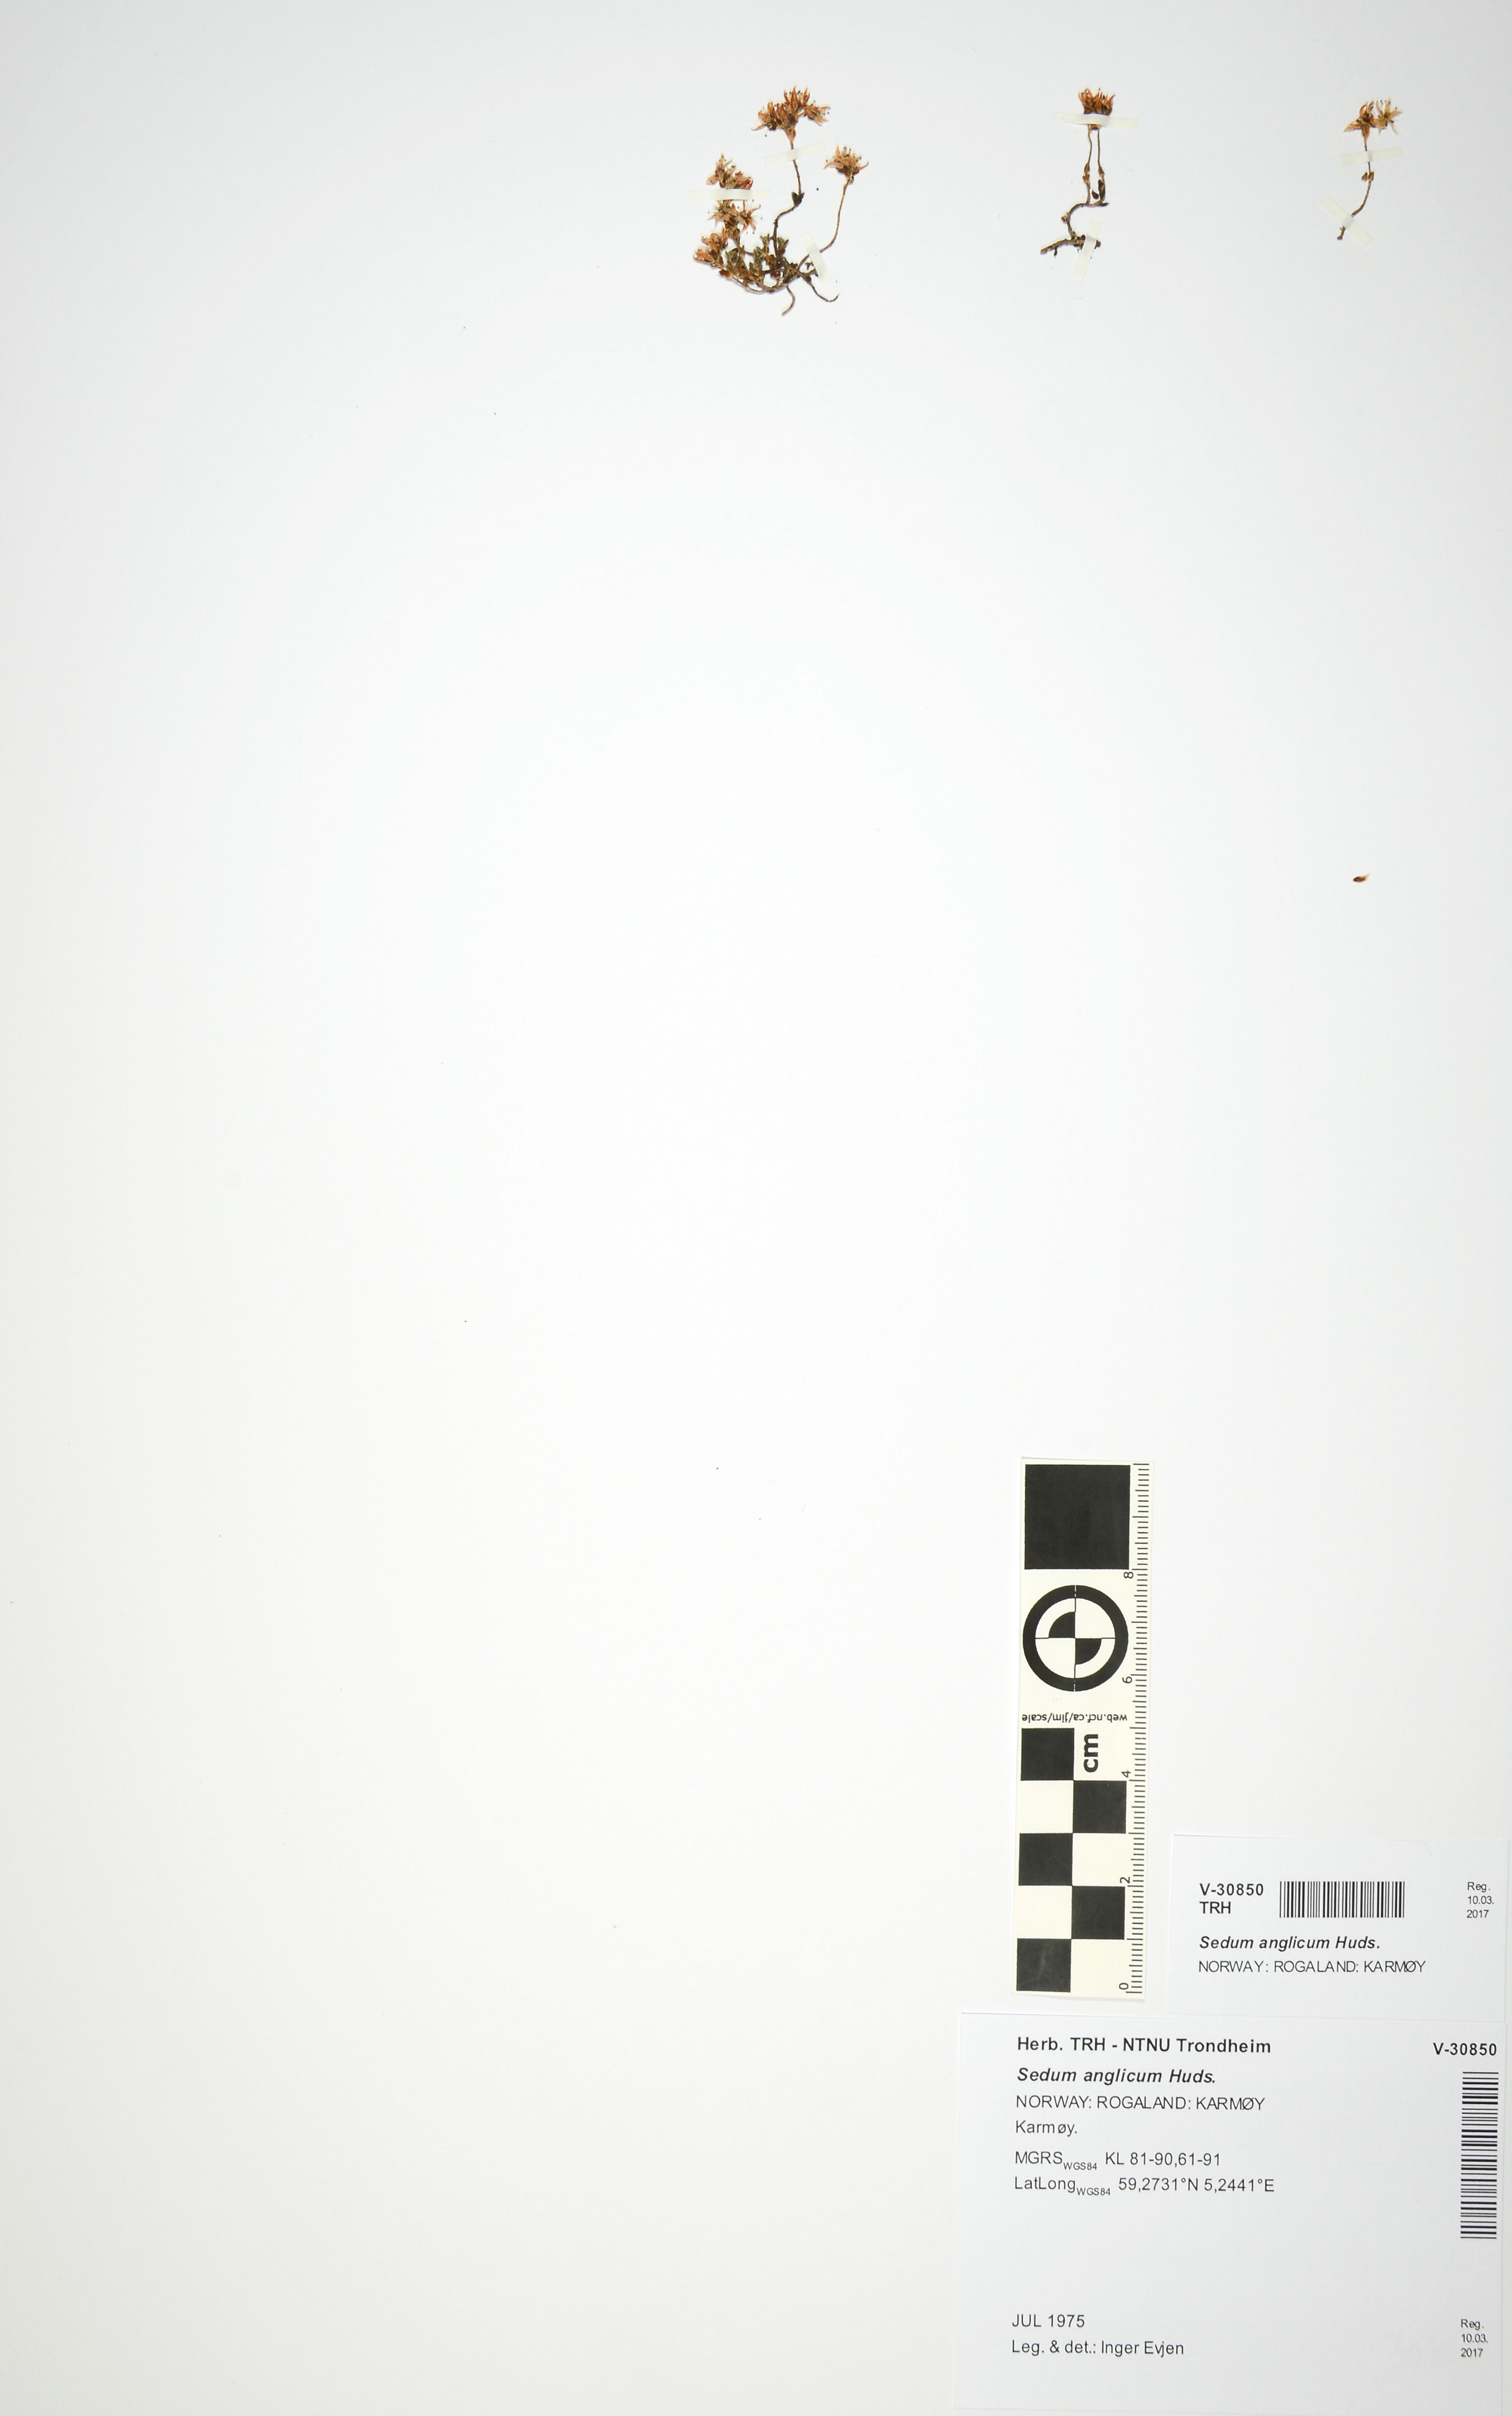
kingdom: Plantae
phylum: Tracheophyta
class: Magnoliopsida
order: Saxifragales
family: Crassulaceae
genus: Sedum
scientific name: Sedum anglicum
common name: English stonecrop
